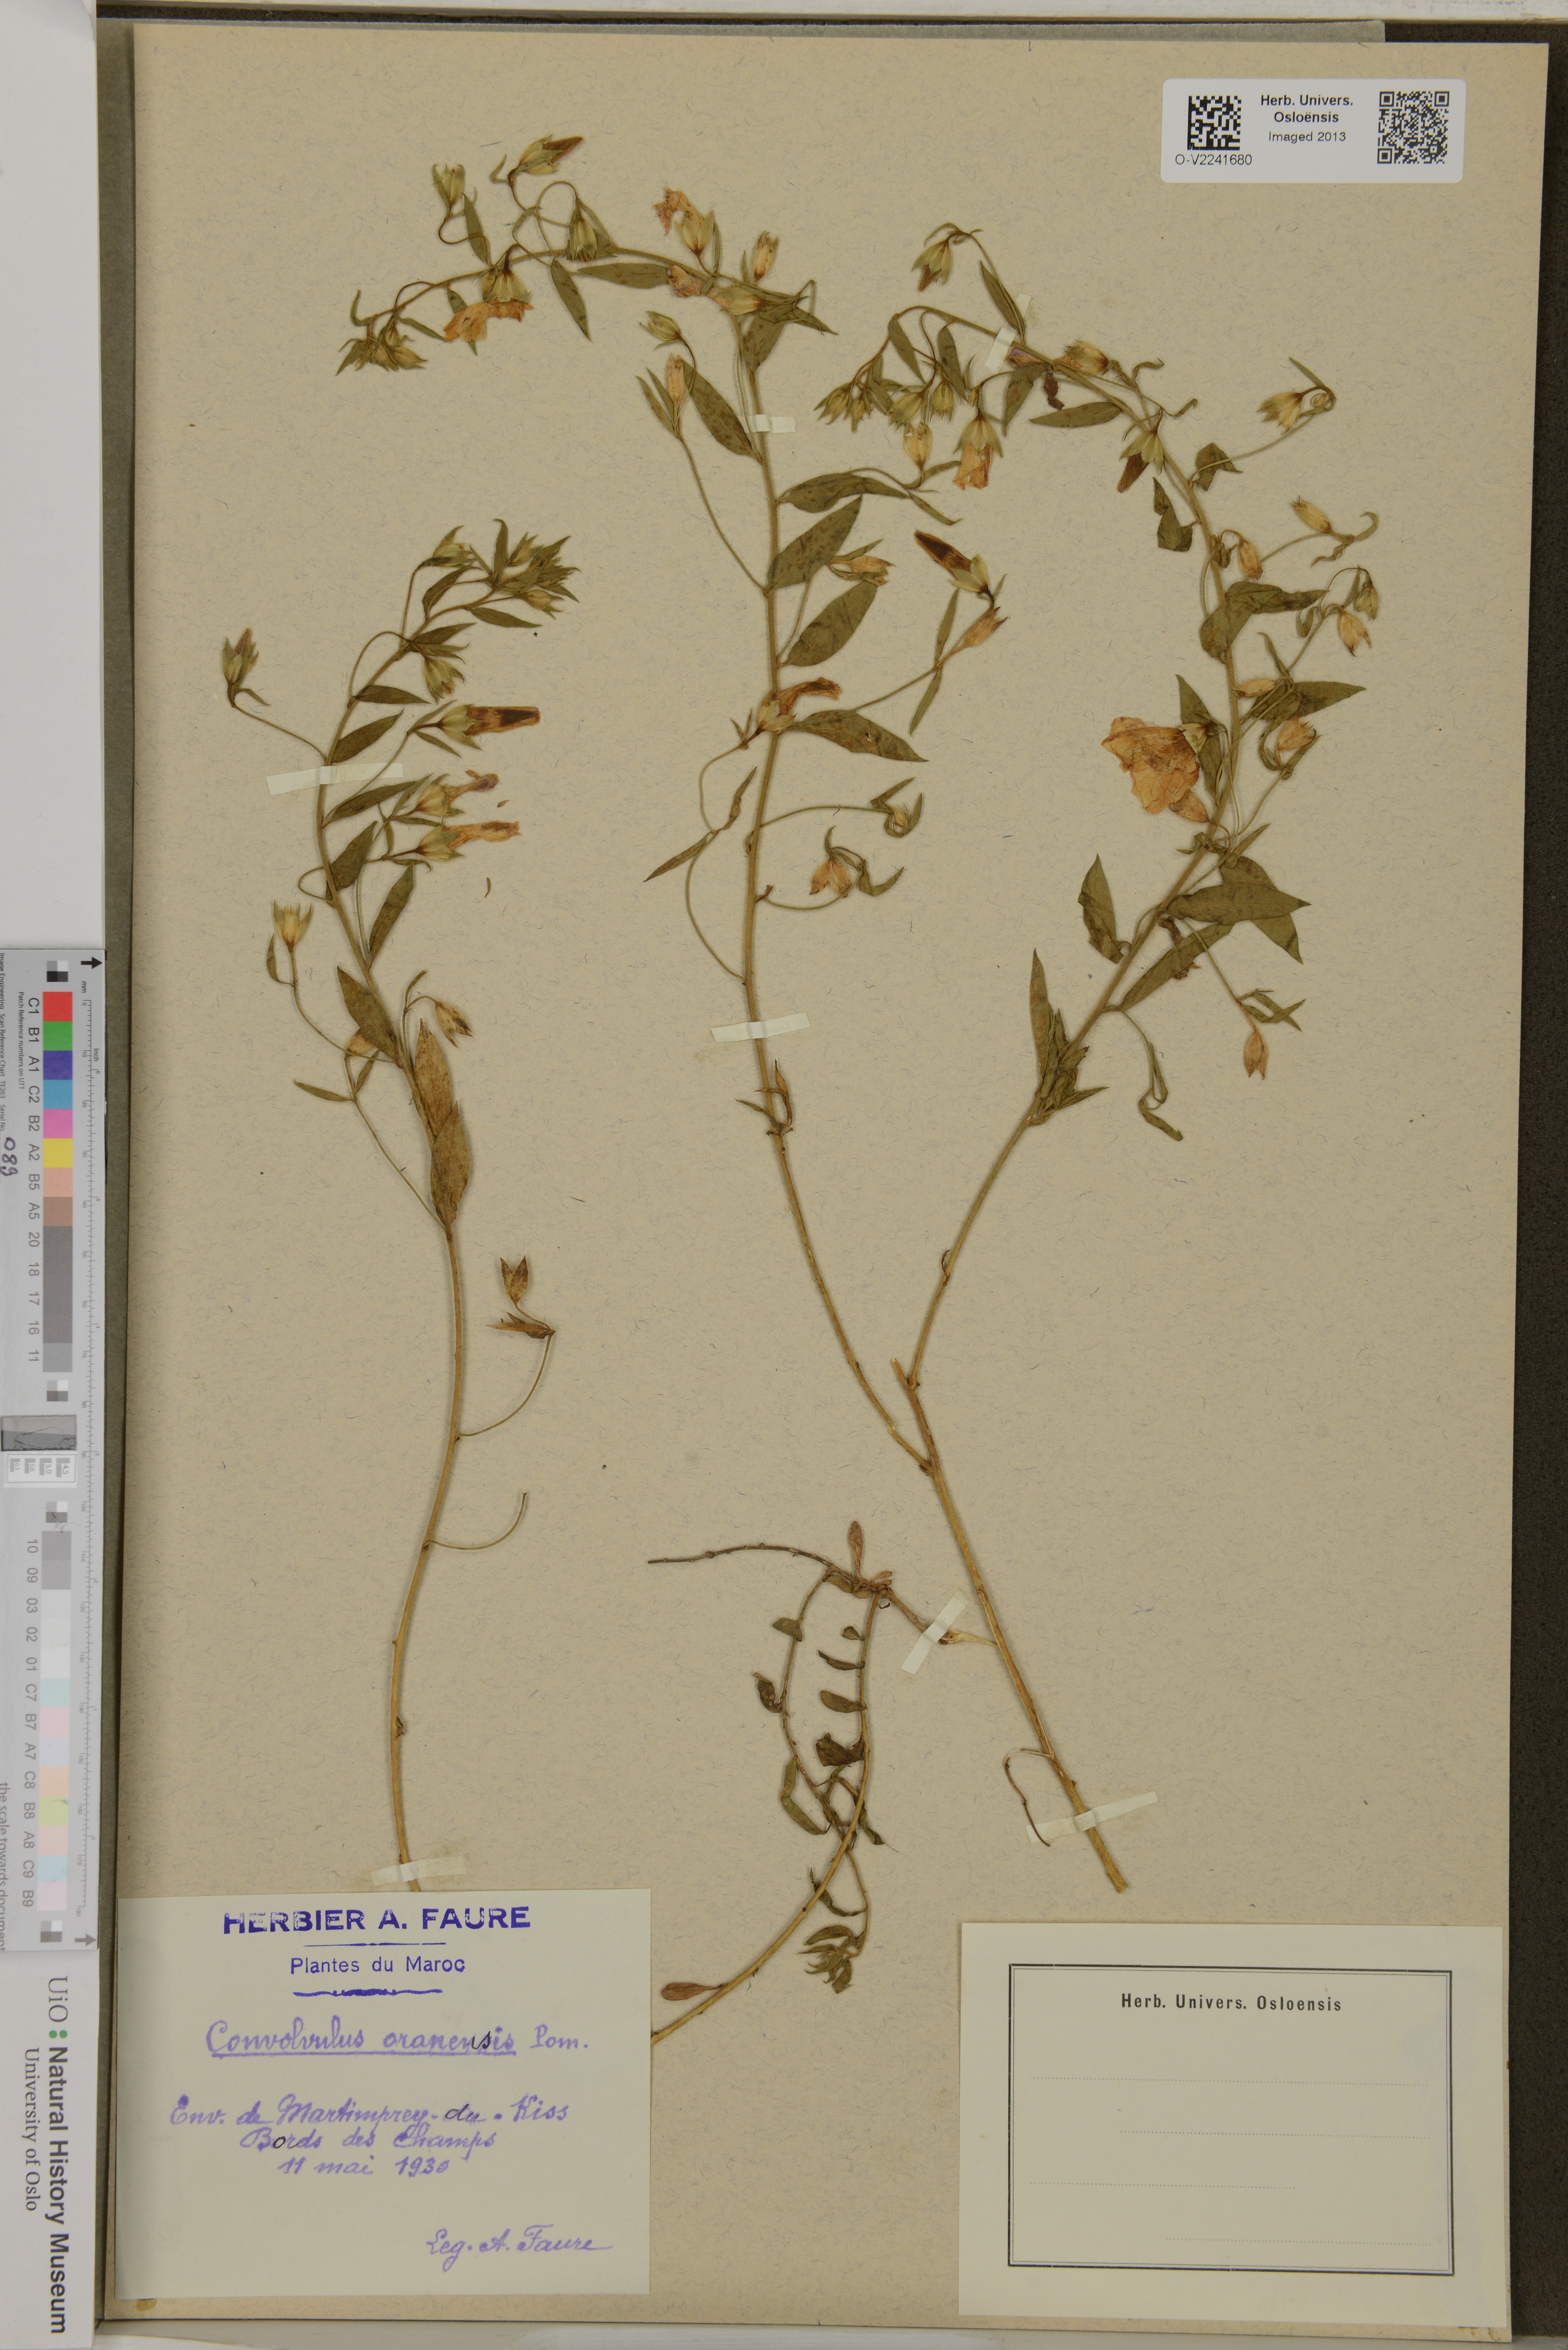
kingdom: Plantae
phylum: Tracheophyta
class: Magnoliopsida
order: Solanales
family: Convolvulaceae
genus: Convolvulus
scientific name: Convolvulus cephalopodus
